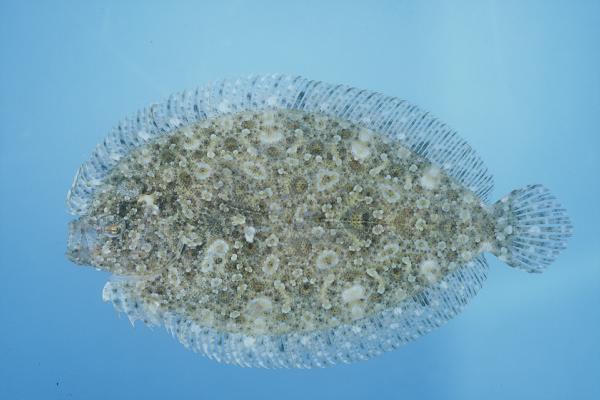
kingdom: Animalia
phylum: Chordata
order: Pleuronectiformes
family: Bothidae
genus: Bothus
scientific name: Bothus pantherinus
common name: Leopard flounder
